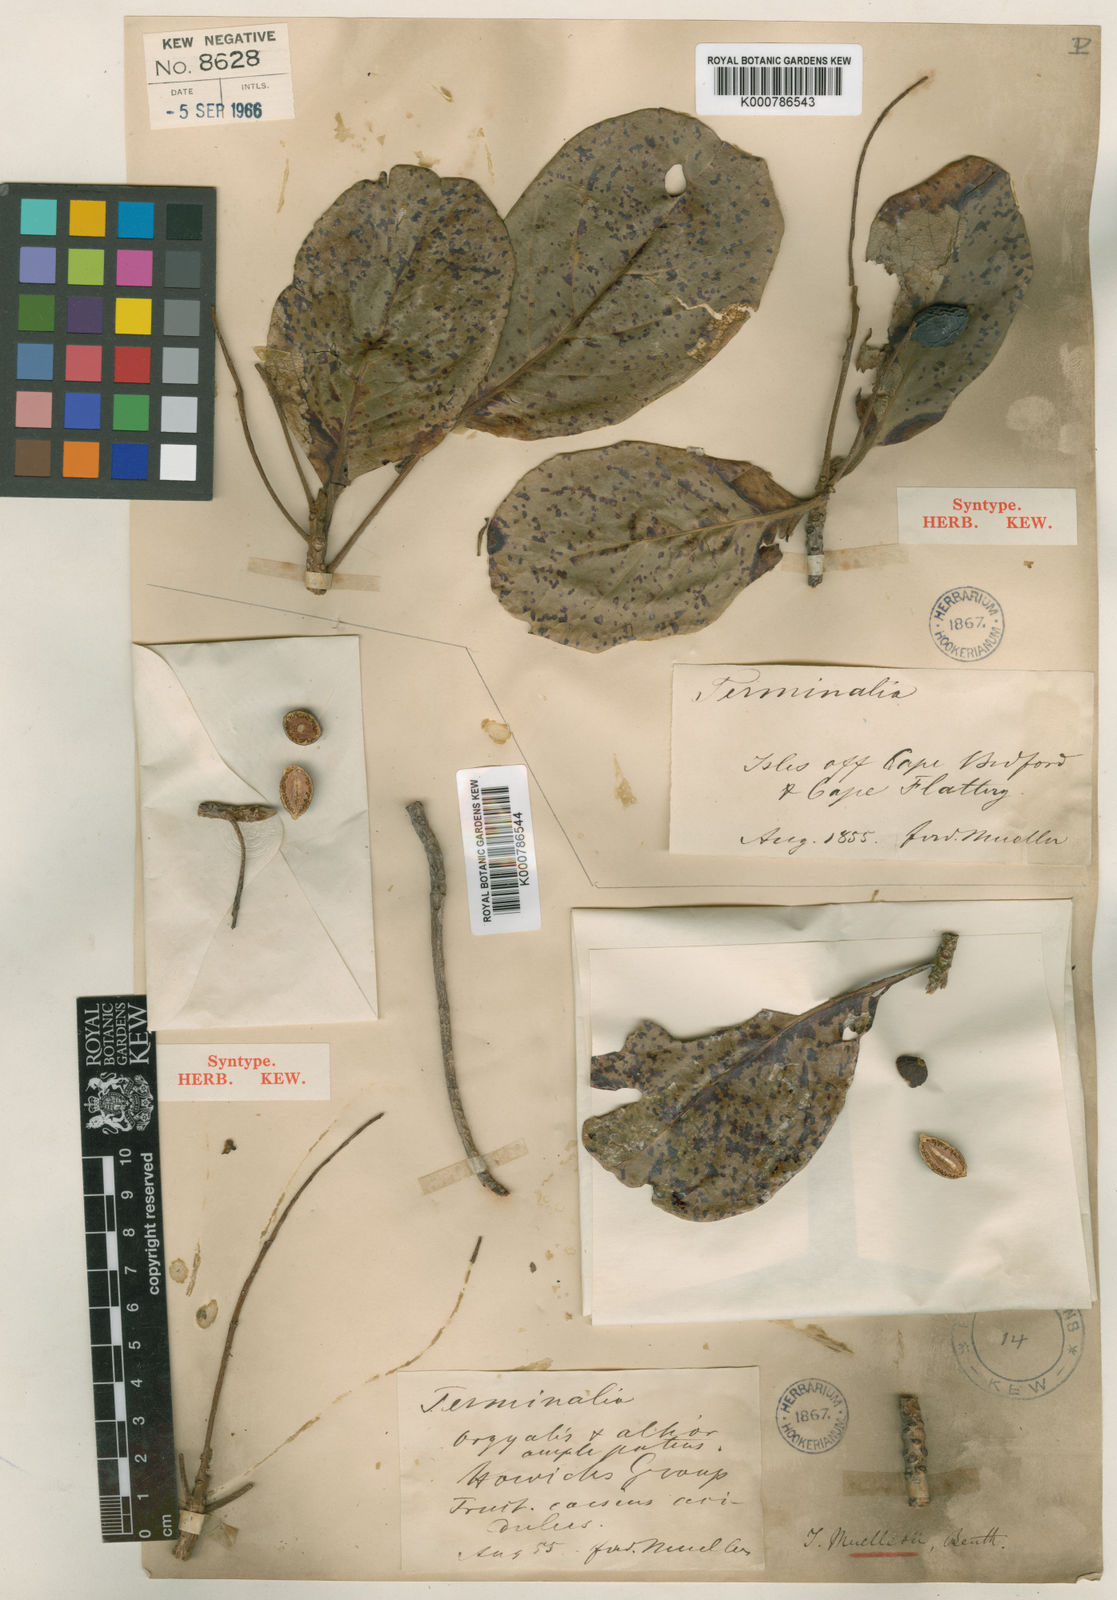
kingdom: Plantae
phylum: Tracheophyta
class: Magnoliopsida
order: Myrtales
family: Combretaceae
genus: Terminalia
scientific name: Terminalia muelleri
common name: Australian almond
